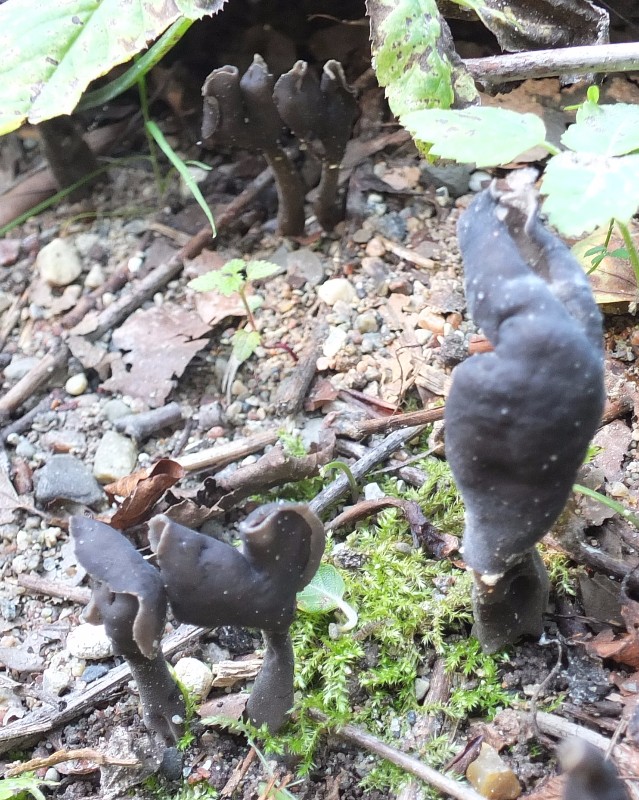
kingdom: Fungi
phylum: Ascomycota
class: Pezizomycetes
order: Pezizales
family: Helvellaceae
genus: Helvella
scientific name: Helvella atra
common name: sort foldhat
